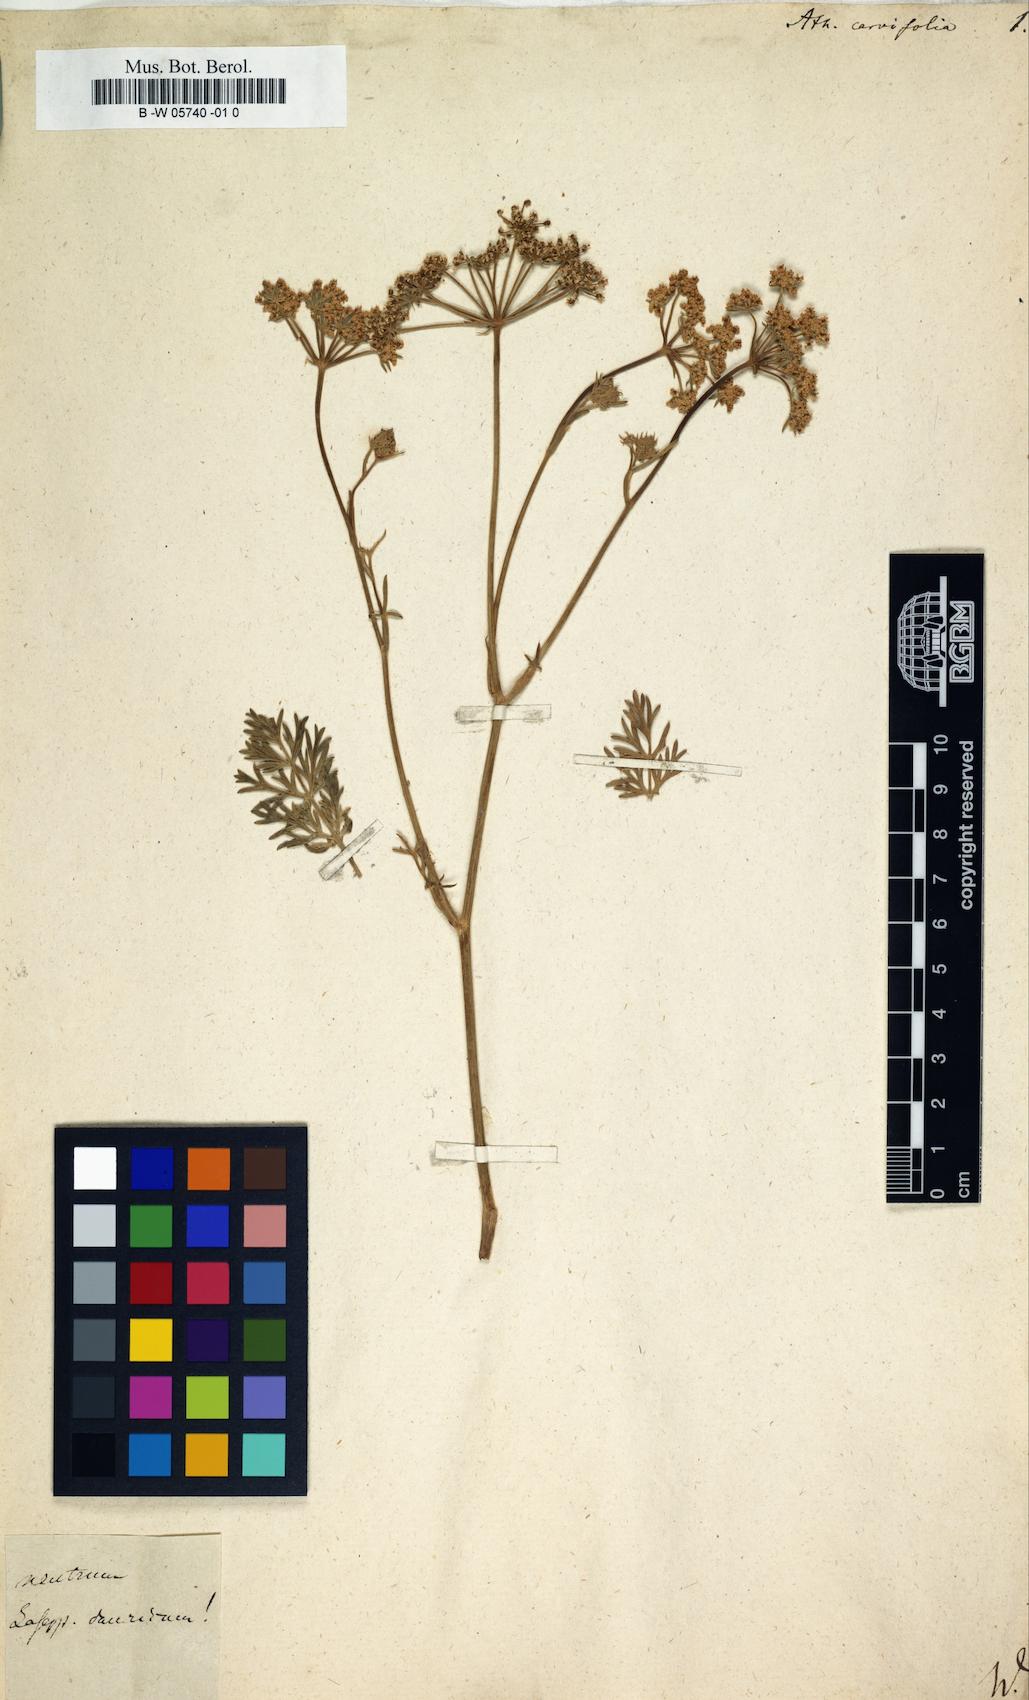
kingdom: Plantae
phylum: Tracheophyta
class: Magnoliopsida
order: Apiales
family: Apiaceae
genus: Athamanta
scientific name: Athamanta carvifolia
